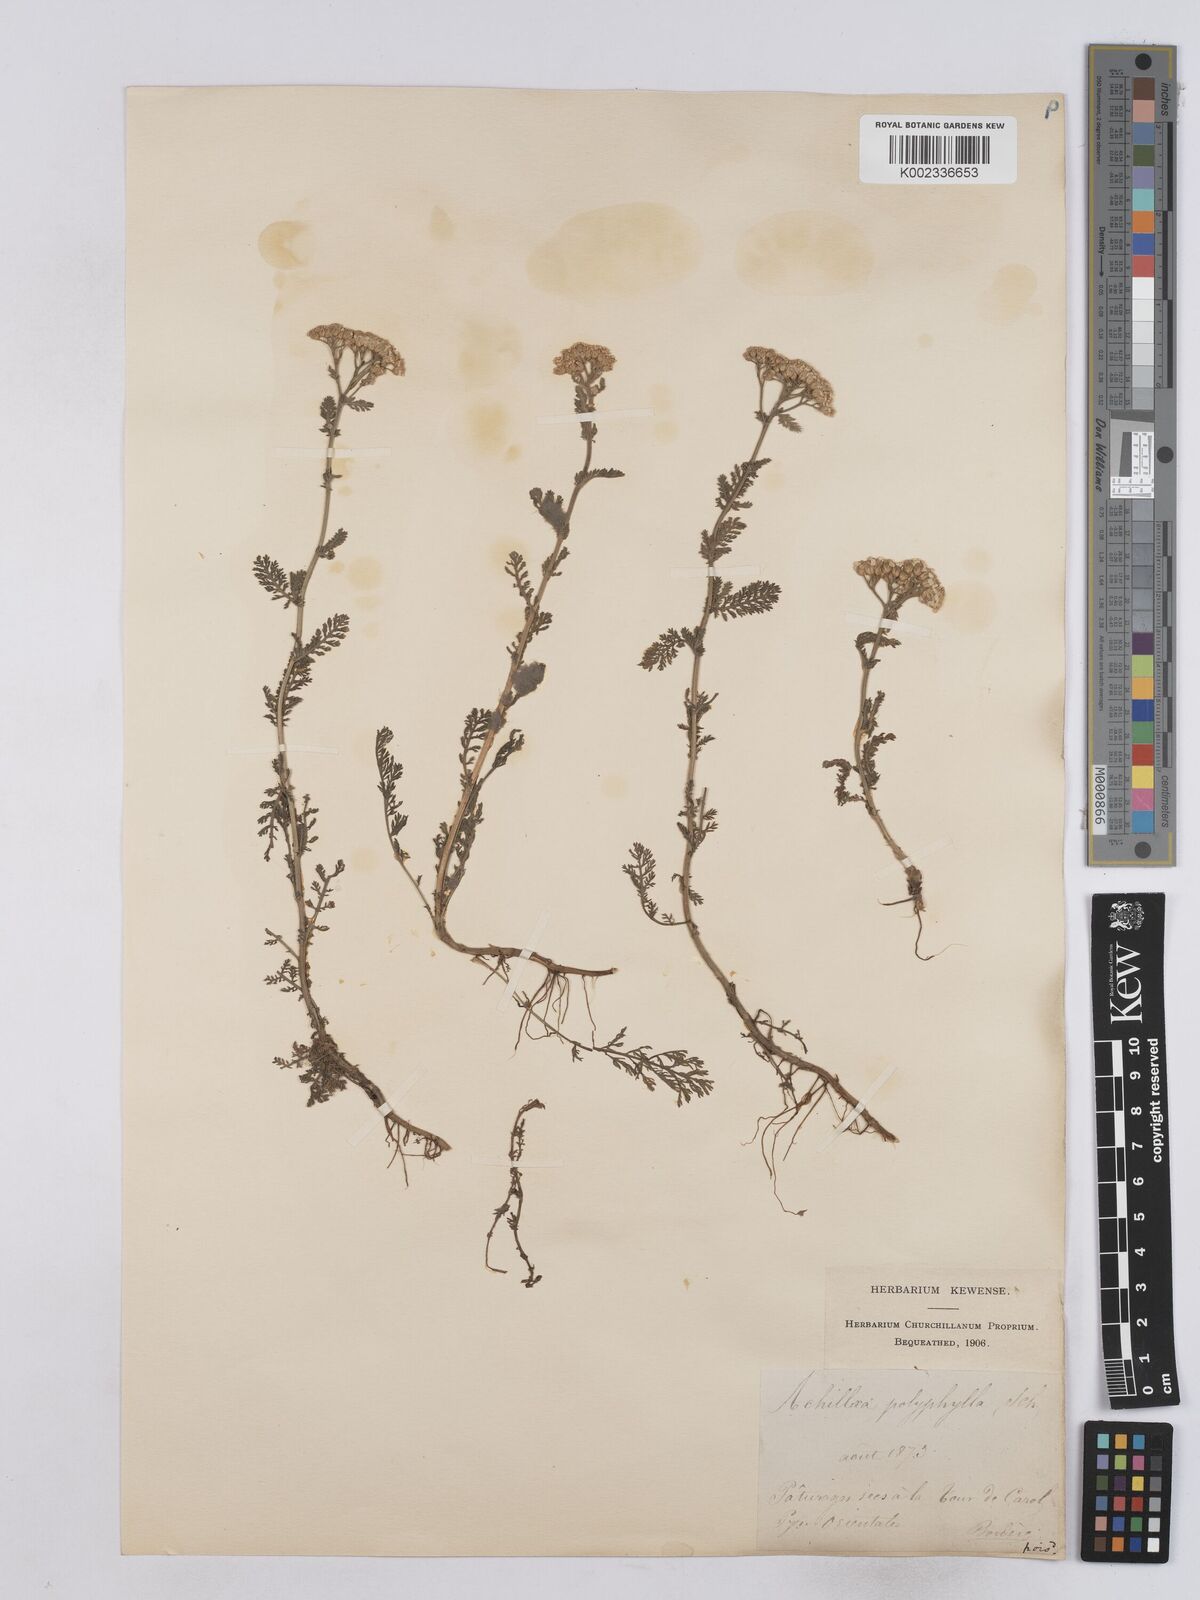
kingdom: Plantae
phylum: Tracheophyta
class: Magnoliopsida
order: Asterales
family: Asteraceae
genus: Achillea
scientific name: Achillea setacea
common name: Bristly yarrow
